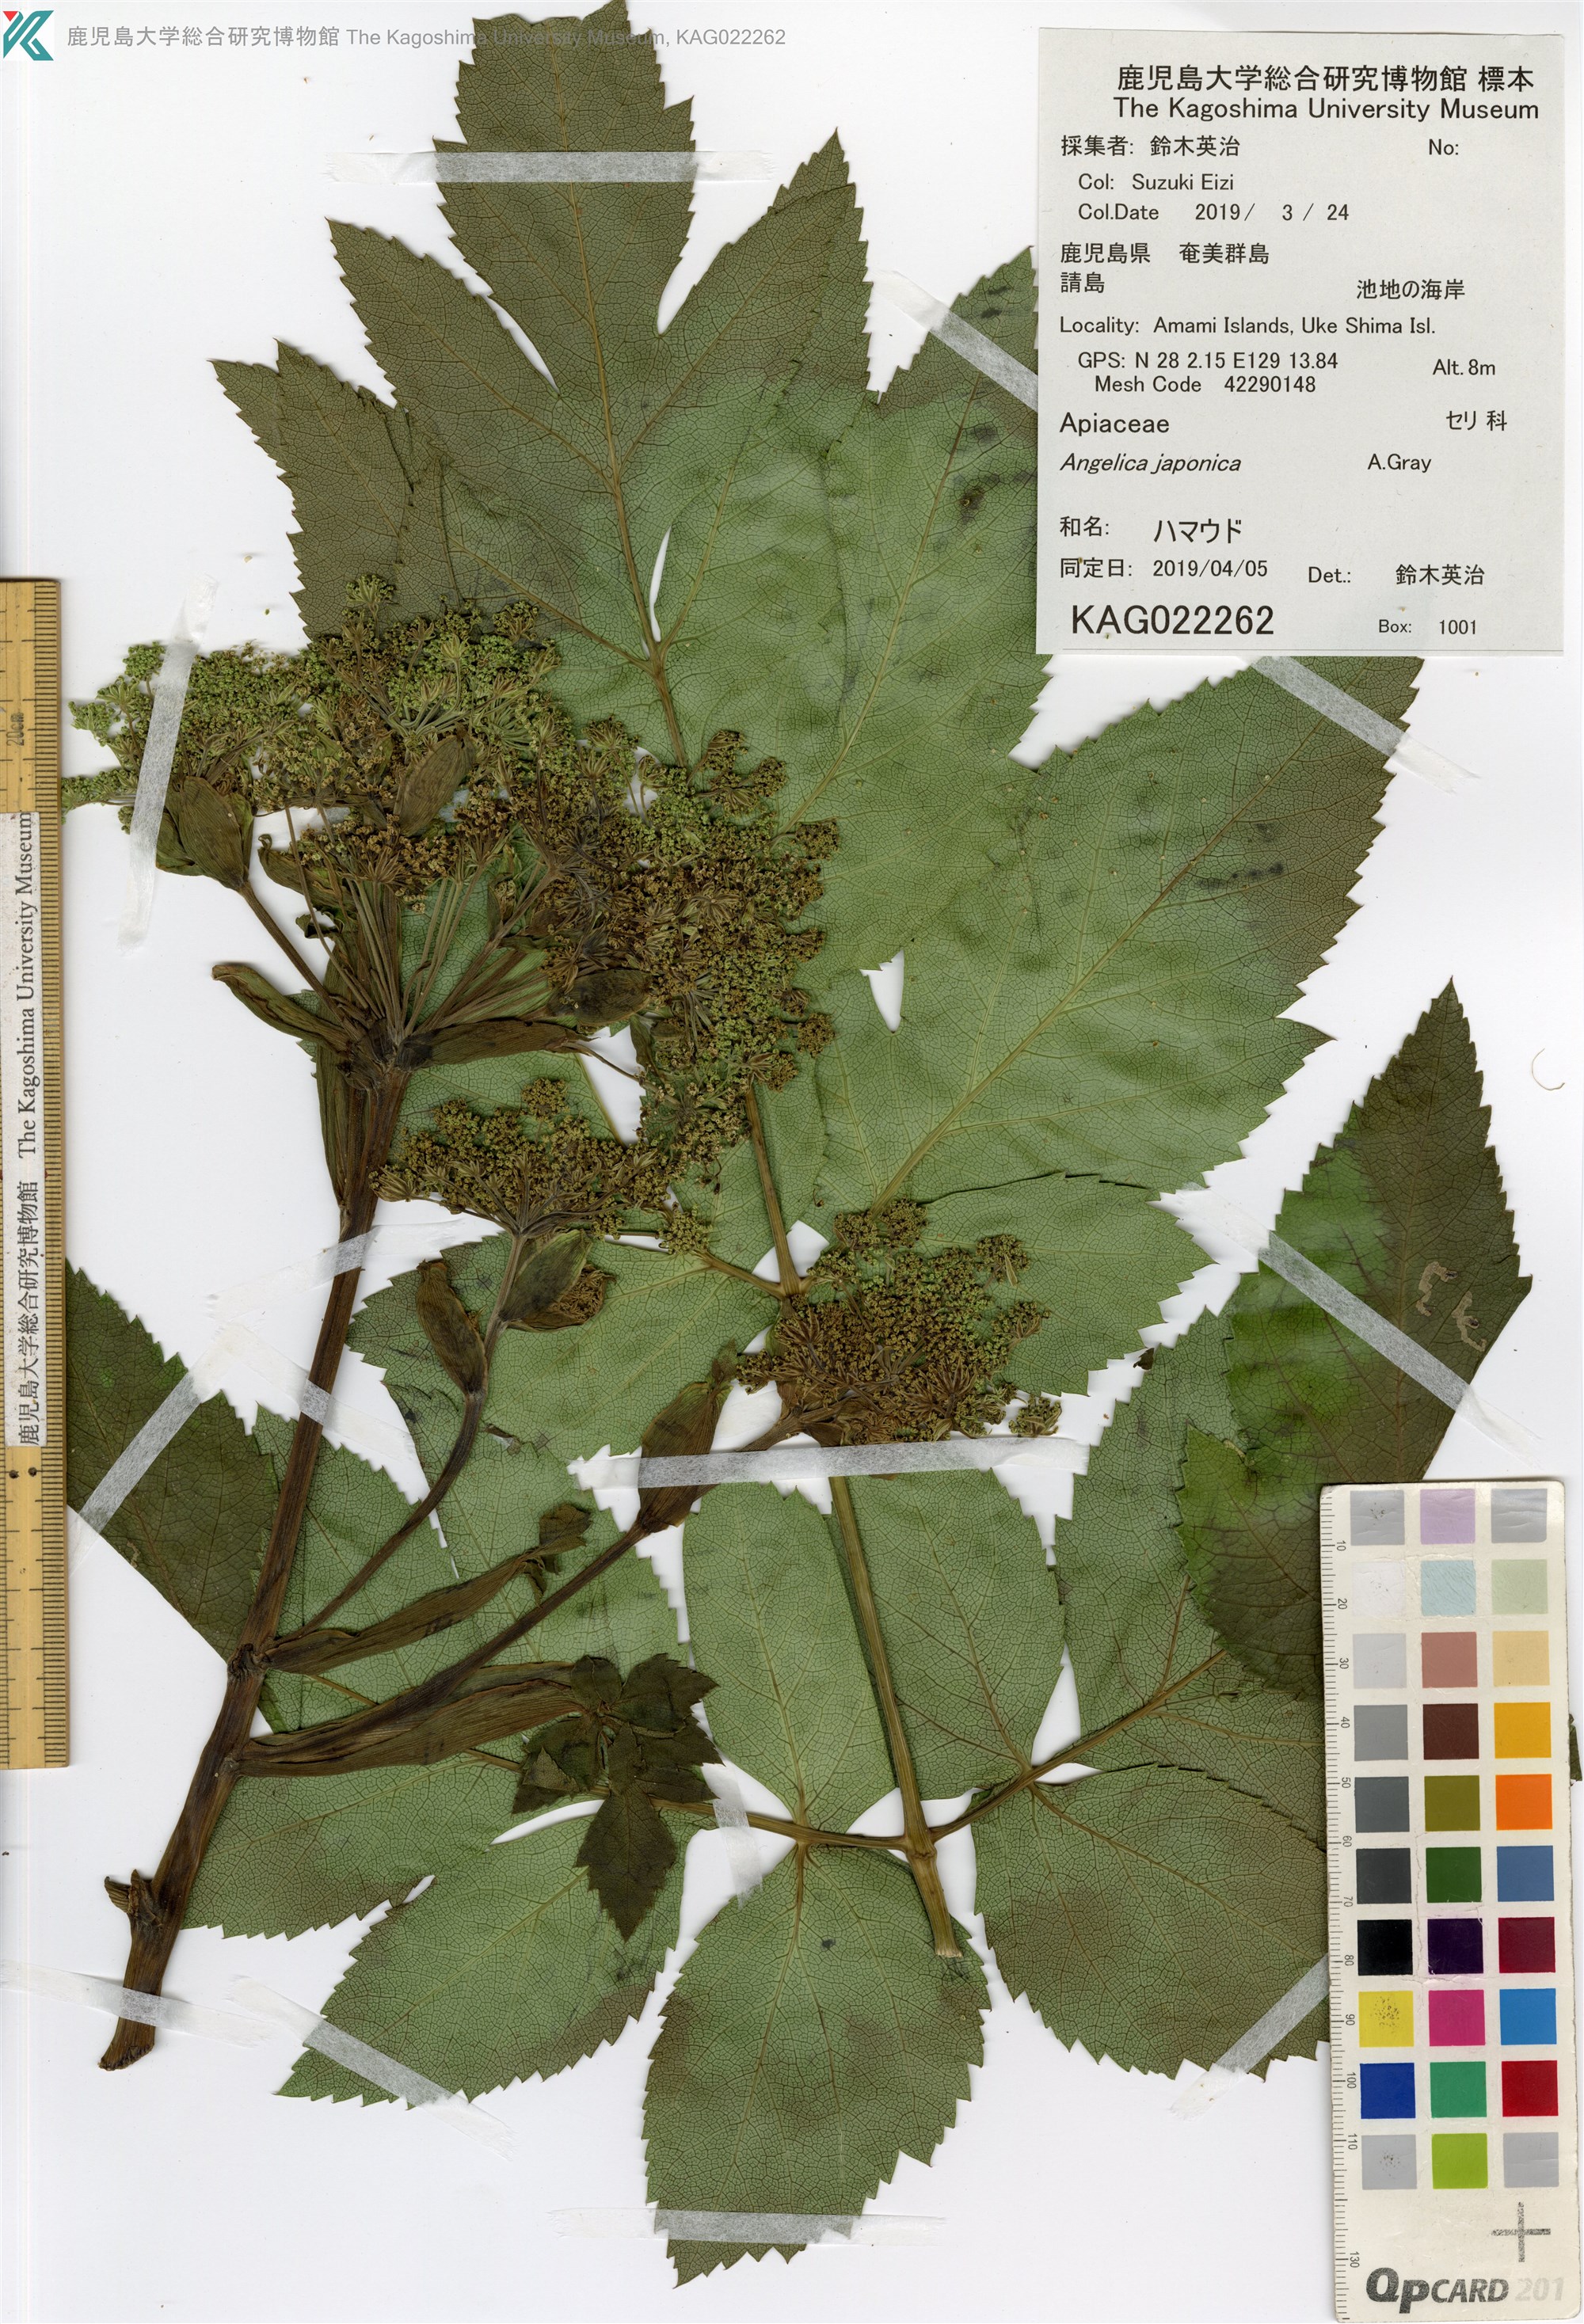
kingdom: Plantae
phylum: Tracheophyta
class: Magnoliopsida
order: Apiales
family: Apiaceae
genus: Angelica
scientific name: Angelica japonica
